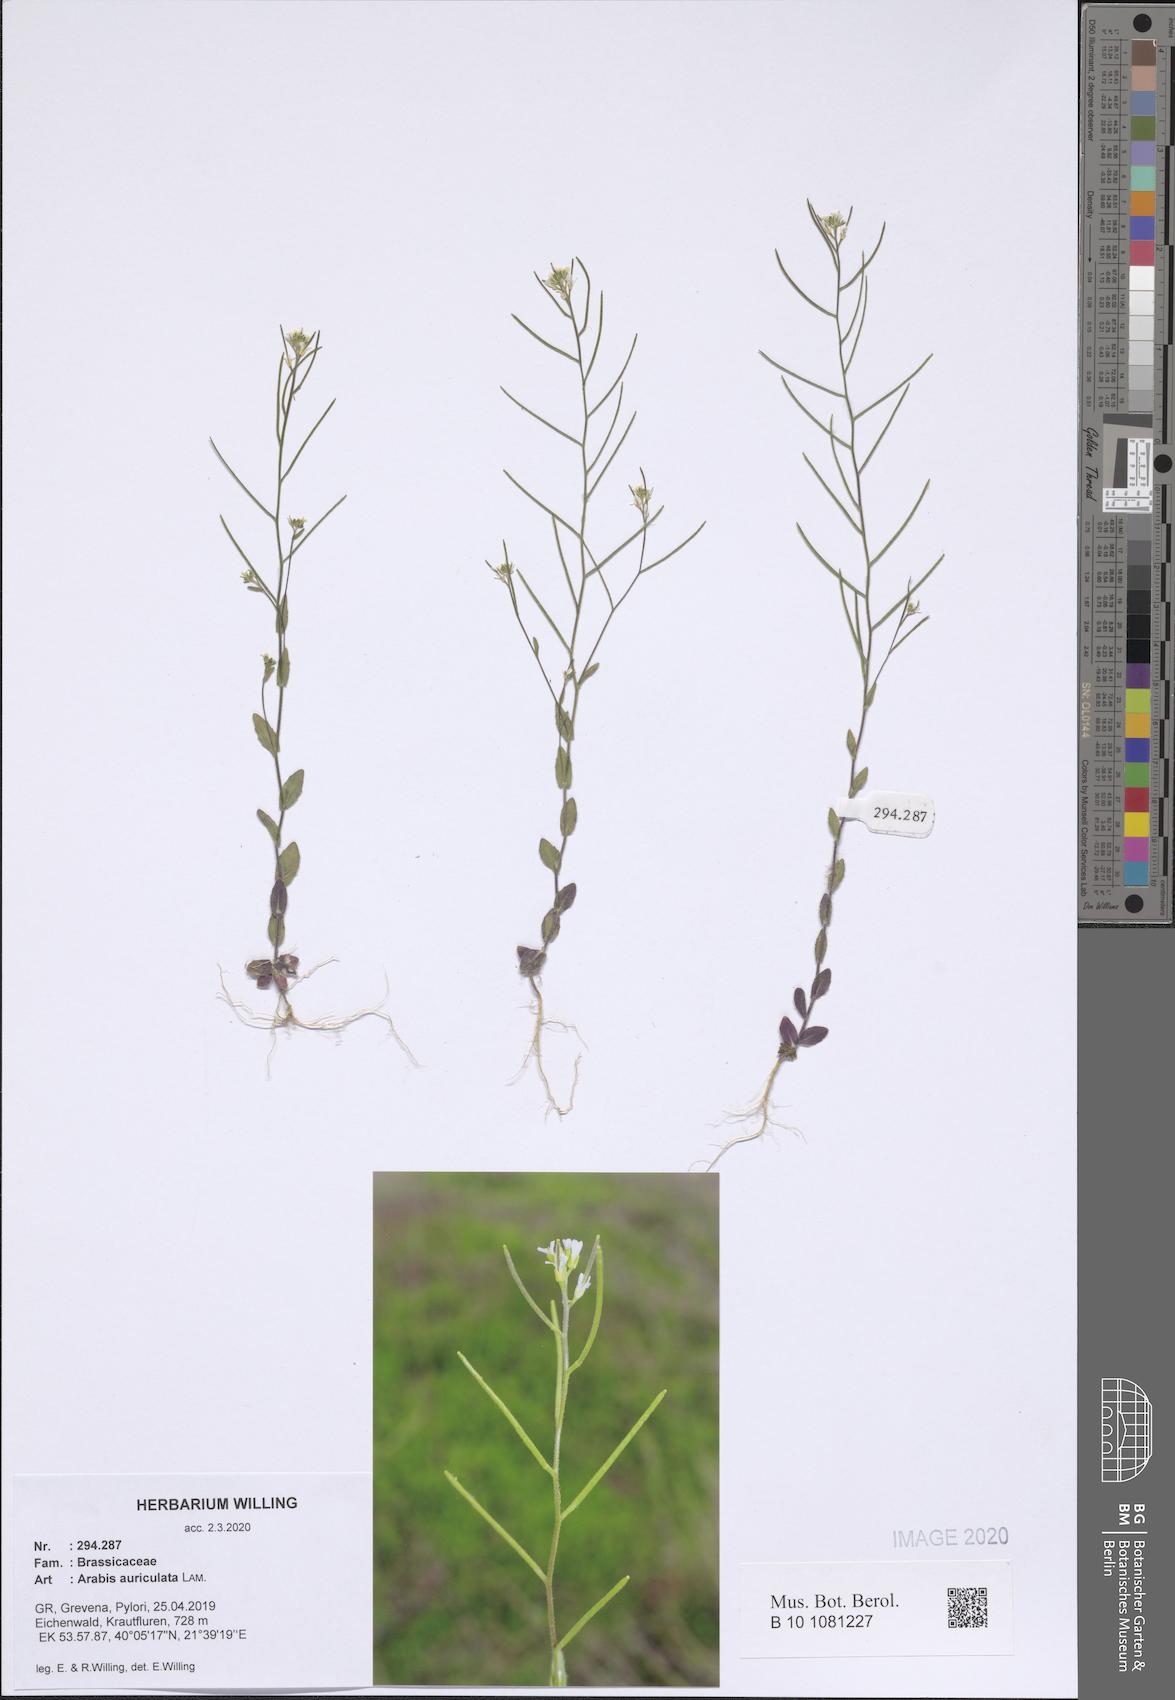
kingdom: Plantae
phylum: Tracheophyta
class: Magnoliopsida
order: Brassicales
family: Brassicaceae
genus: Arabis
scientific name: Arabis auriculata
